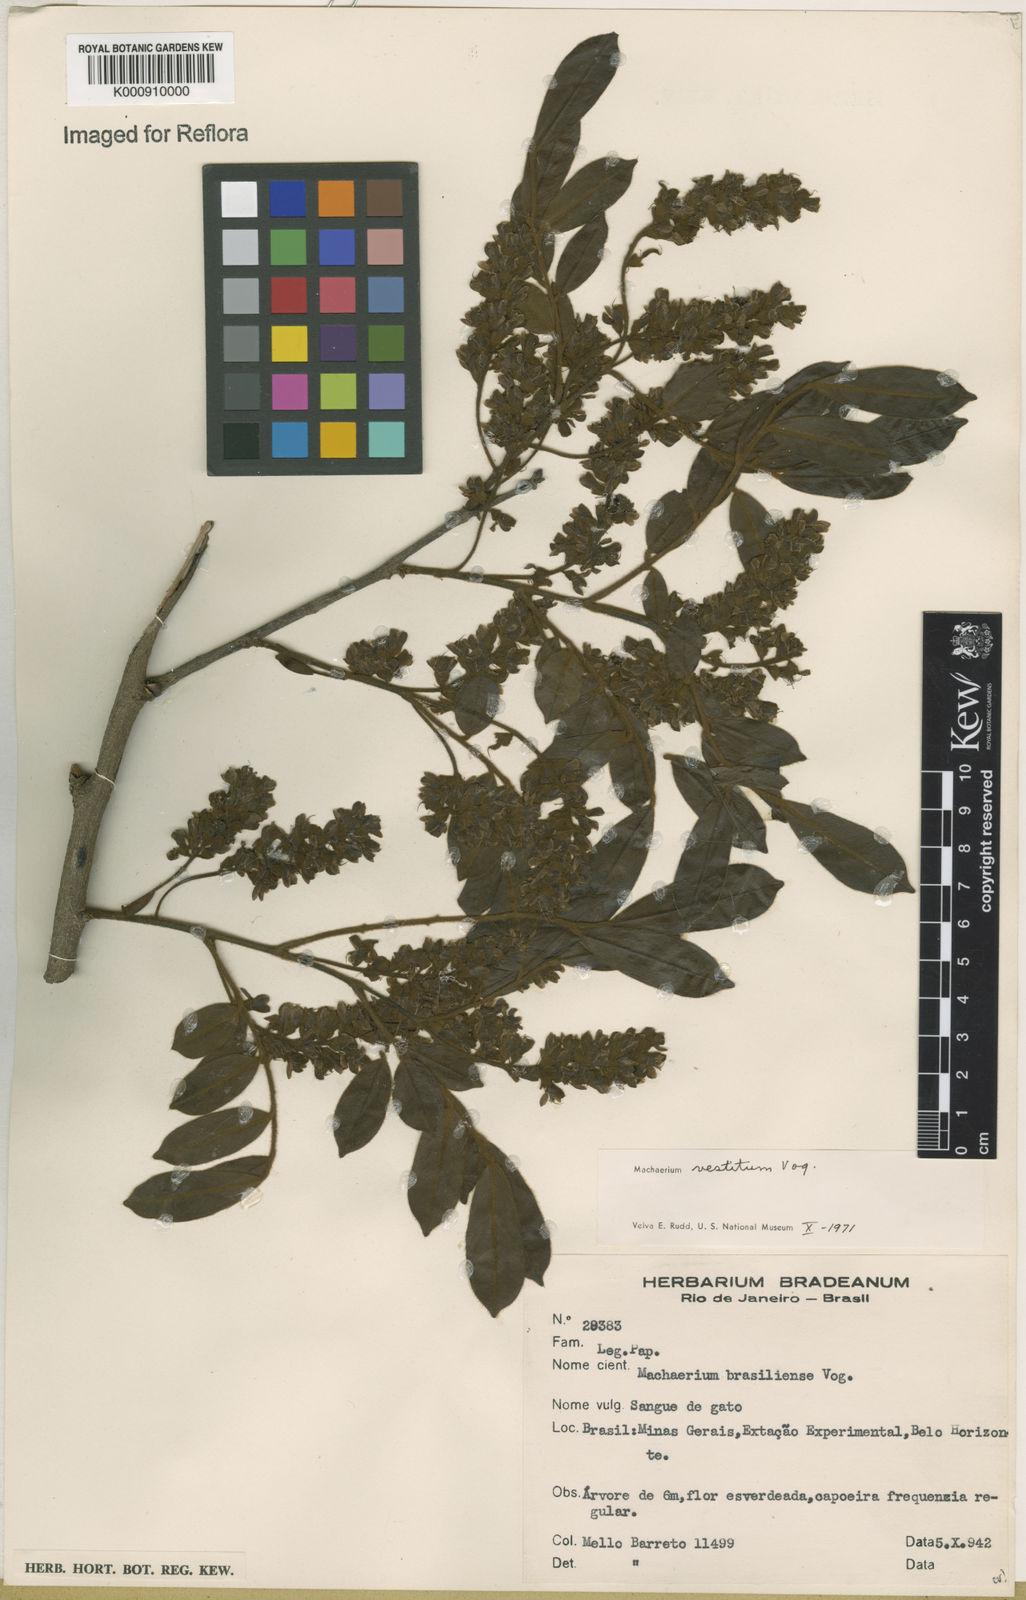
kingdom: Plantae
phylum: Tracheophyta
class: Magnoliopsida
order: Fabales
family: Fabaceae
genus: Machaerium
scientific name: Machaerium brasiliense
